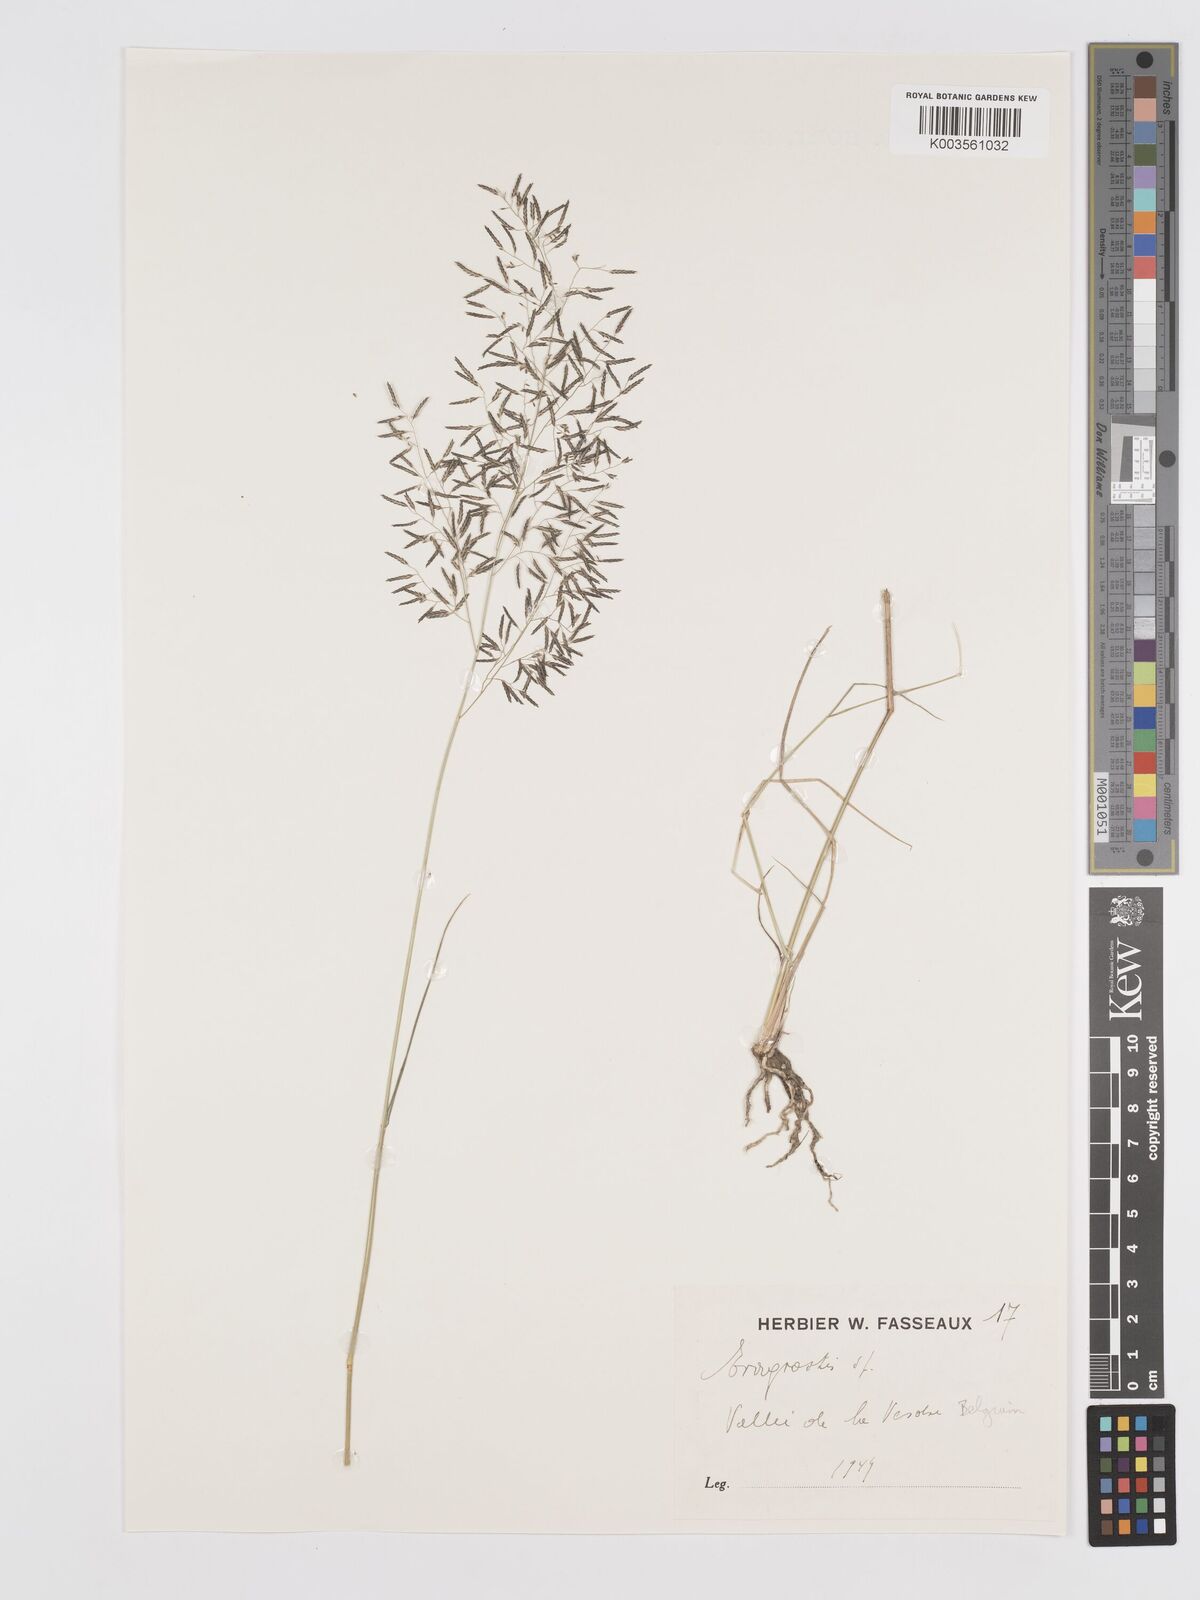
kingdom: Plantae
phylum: Tracheophyta
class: Liliopsida
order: Poales
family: Poaceae
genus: Eragrostis
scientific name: Eragrostis
